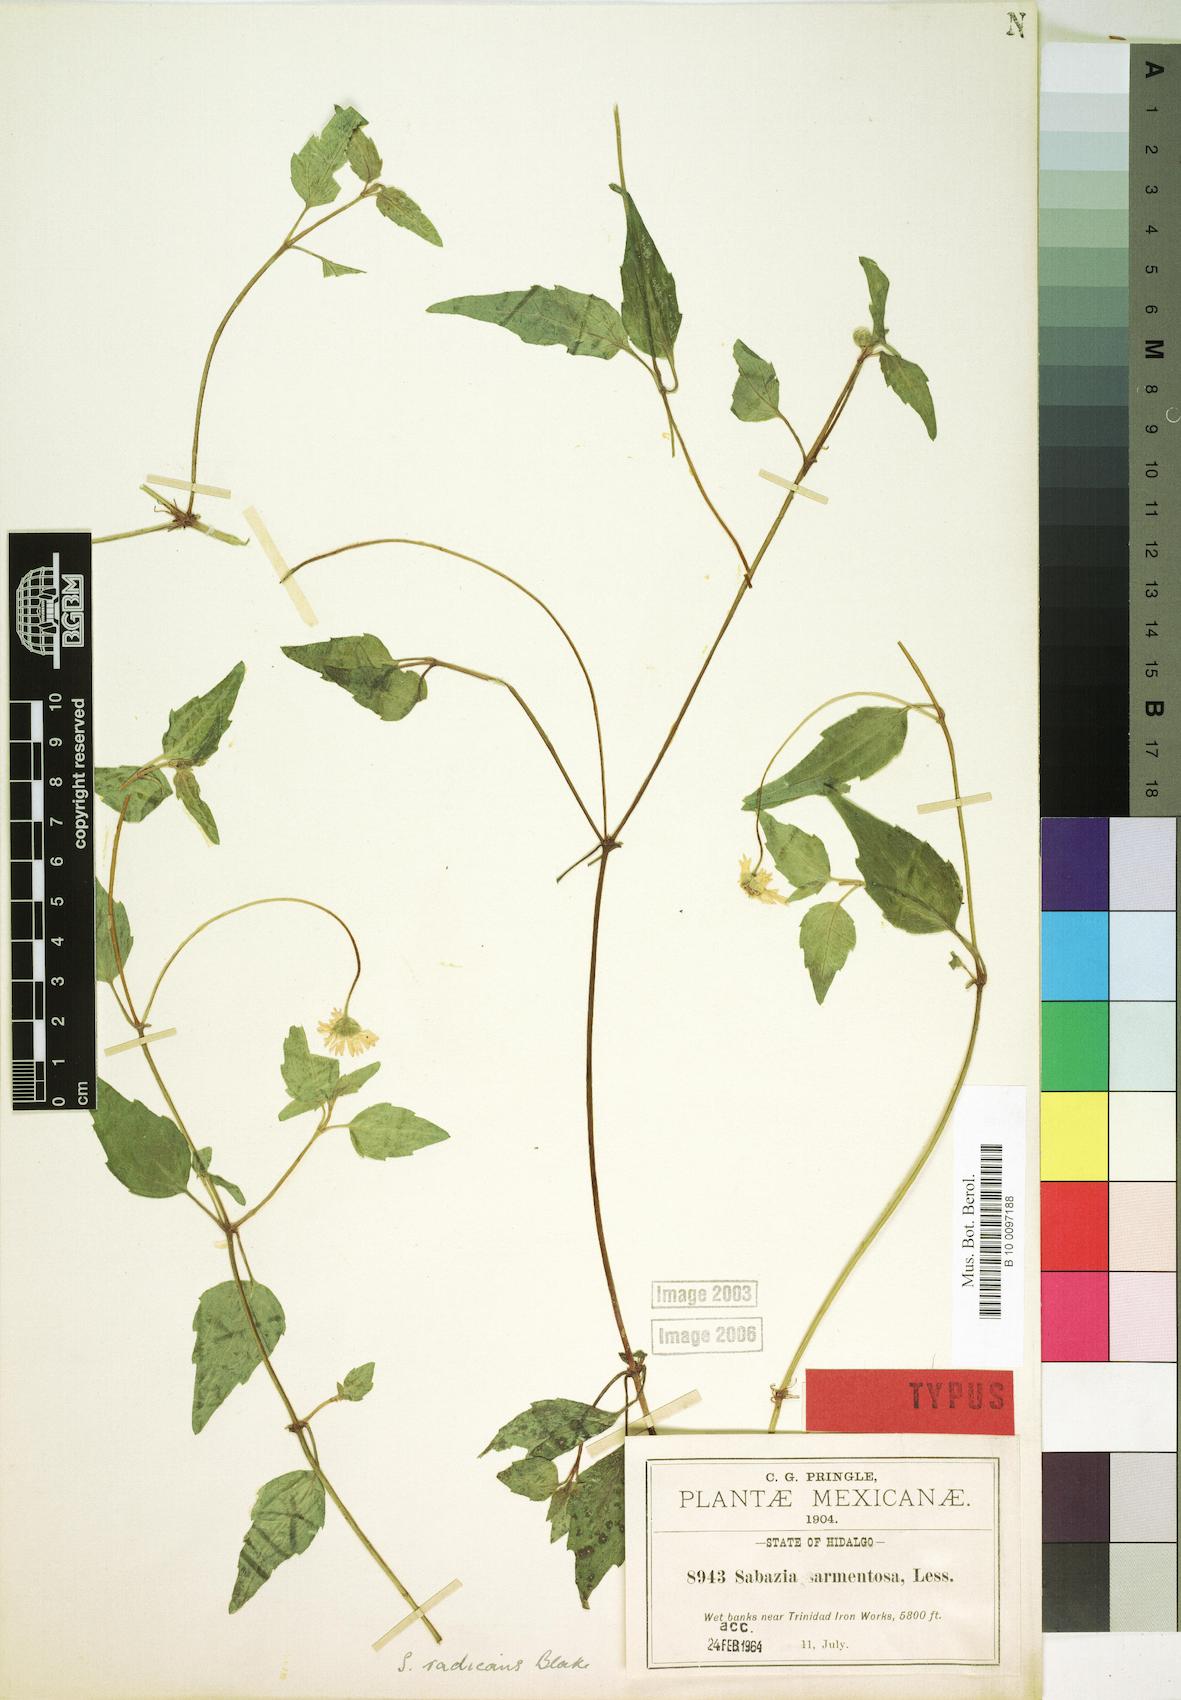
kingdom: Plantae
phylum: Tracheophyta
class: Magnoliopsida
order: Asterales
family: Asteraceae
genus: Sabazia
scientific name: Sabazia sarmentosa
